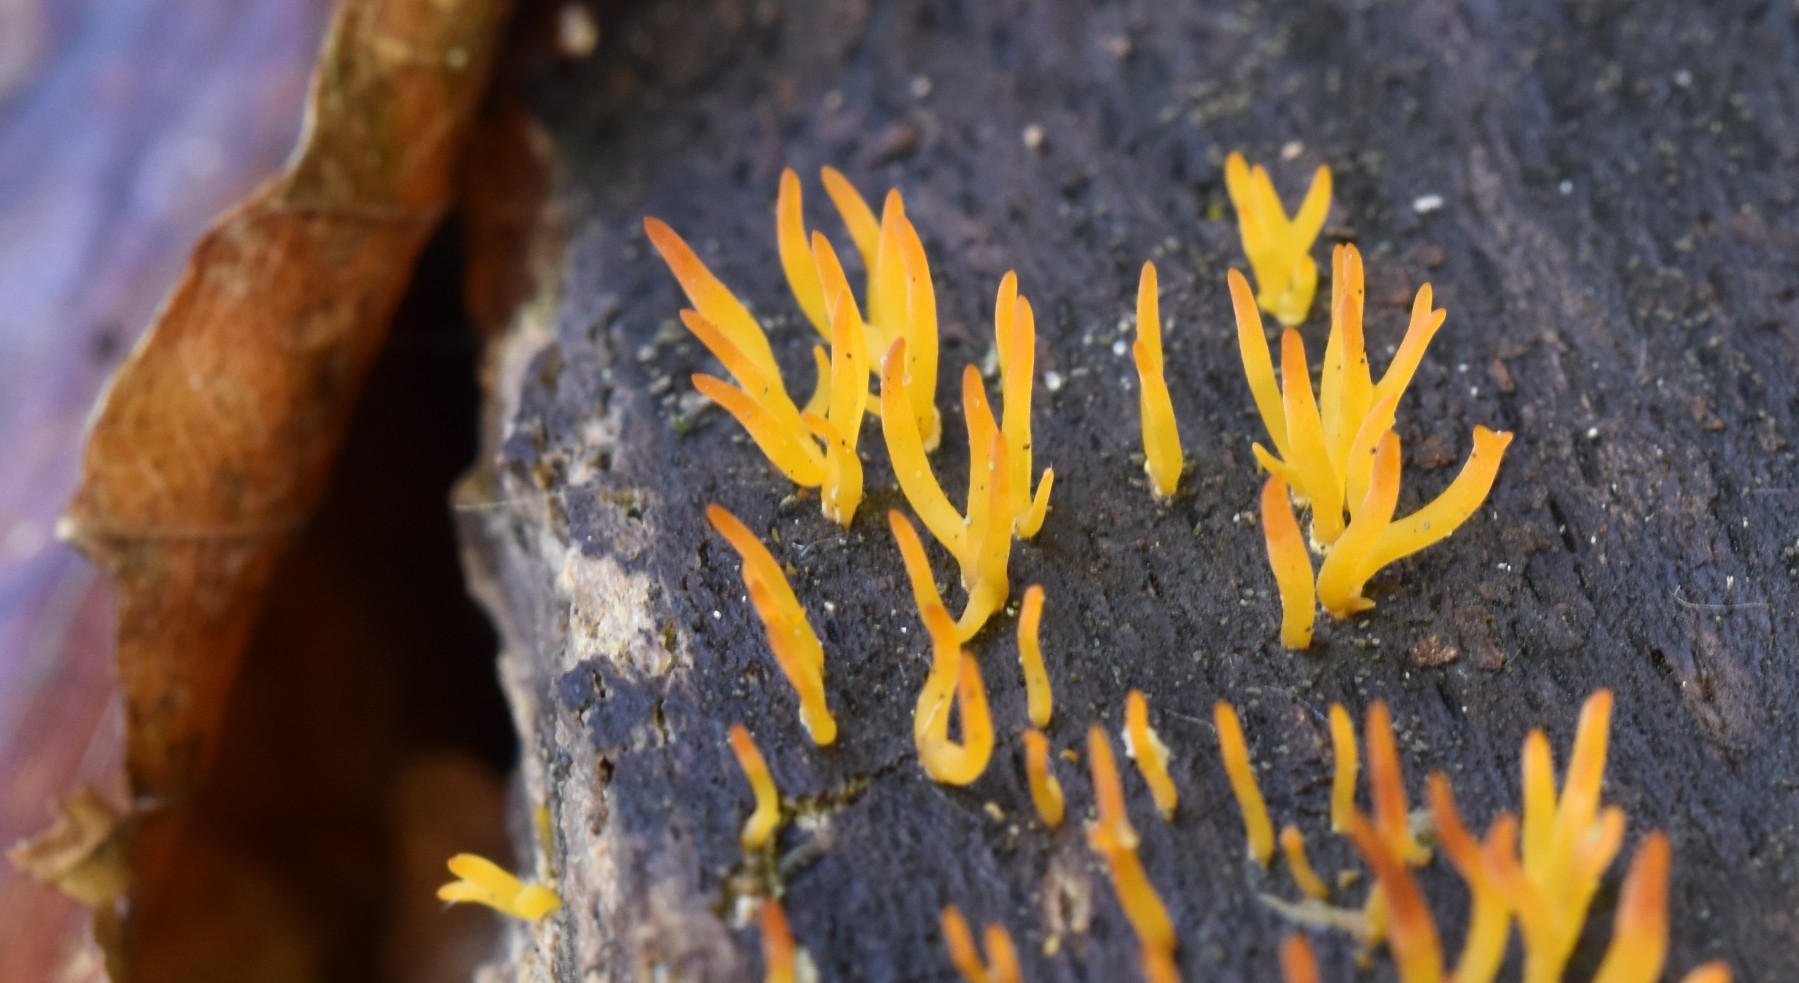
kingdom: Fungi
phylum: Basidiomycota
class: Dacrymycetes
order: Dacrymycetales
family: Dacrymycetaceae
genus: Calocera
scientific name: Calocera cornea
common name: liden guldgaffel
